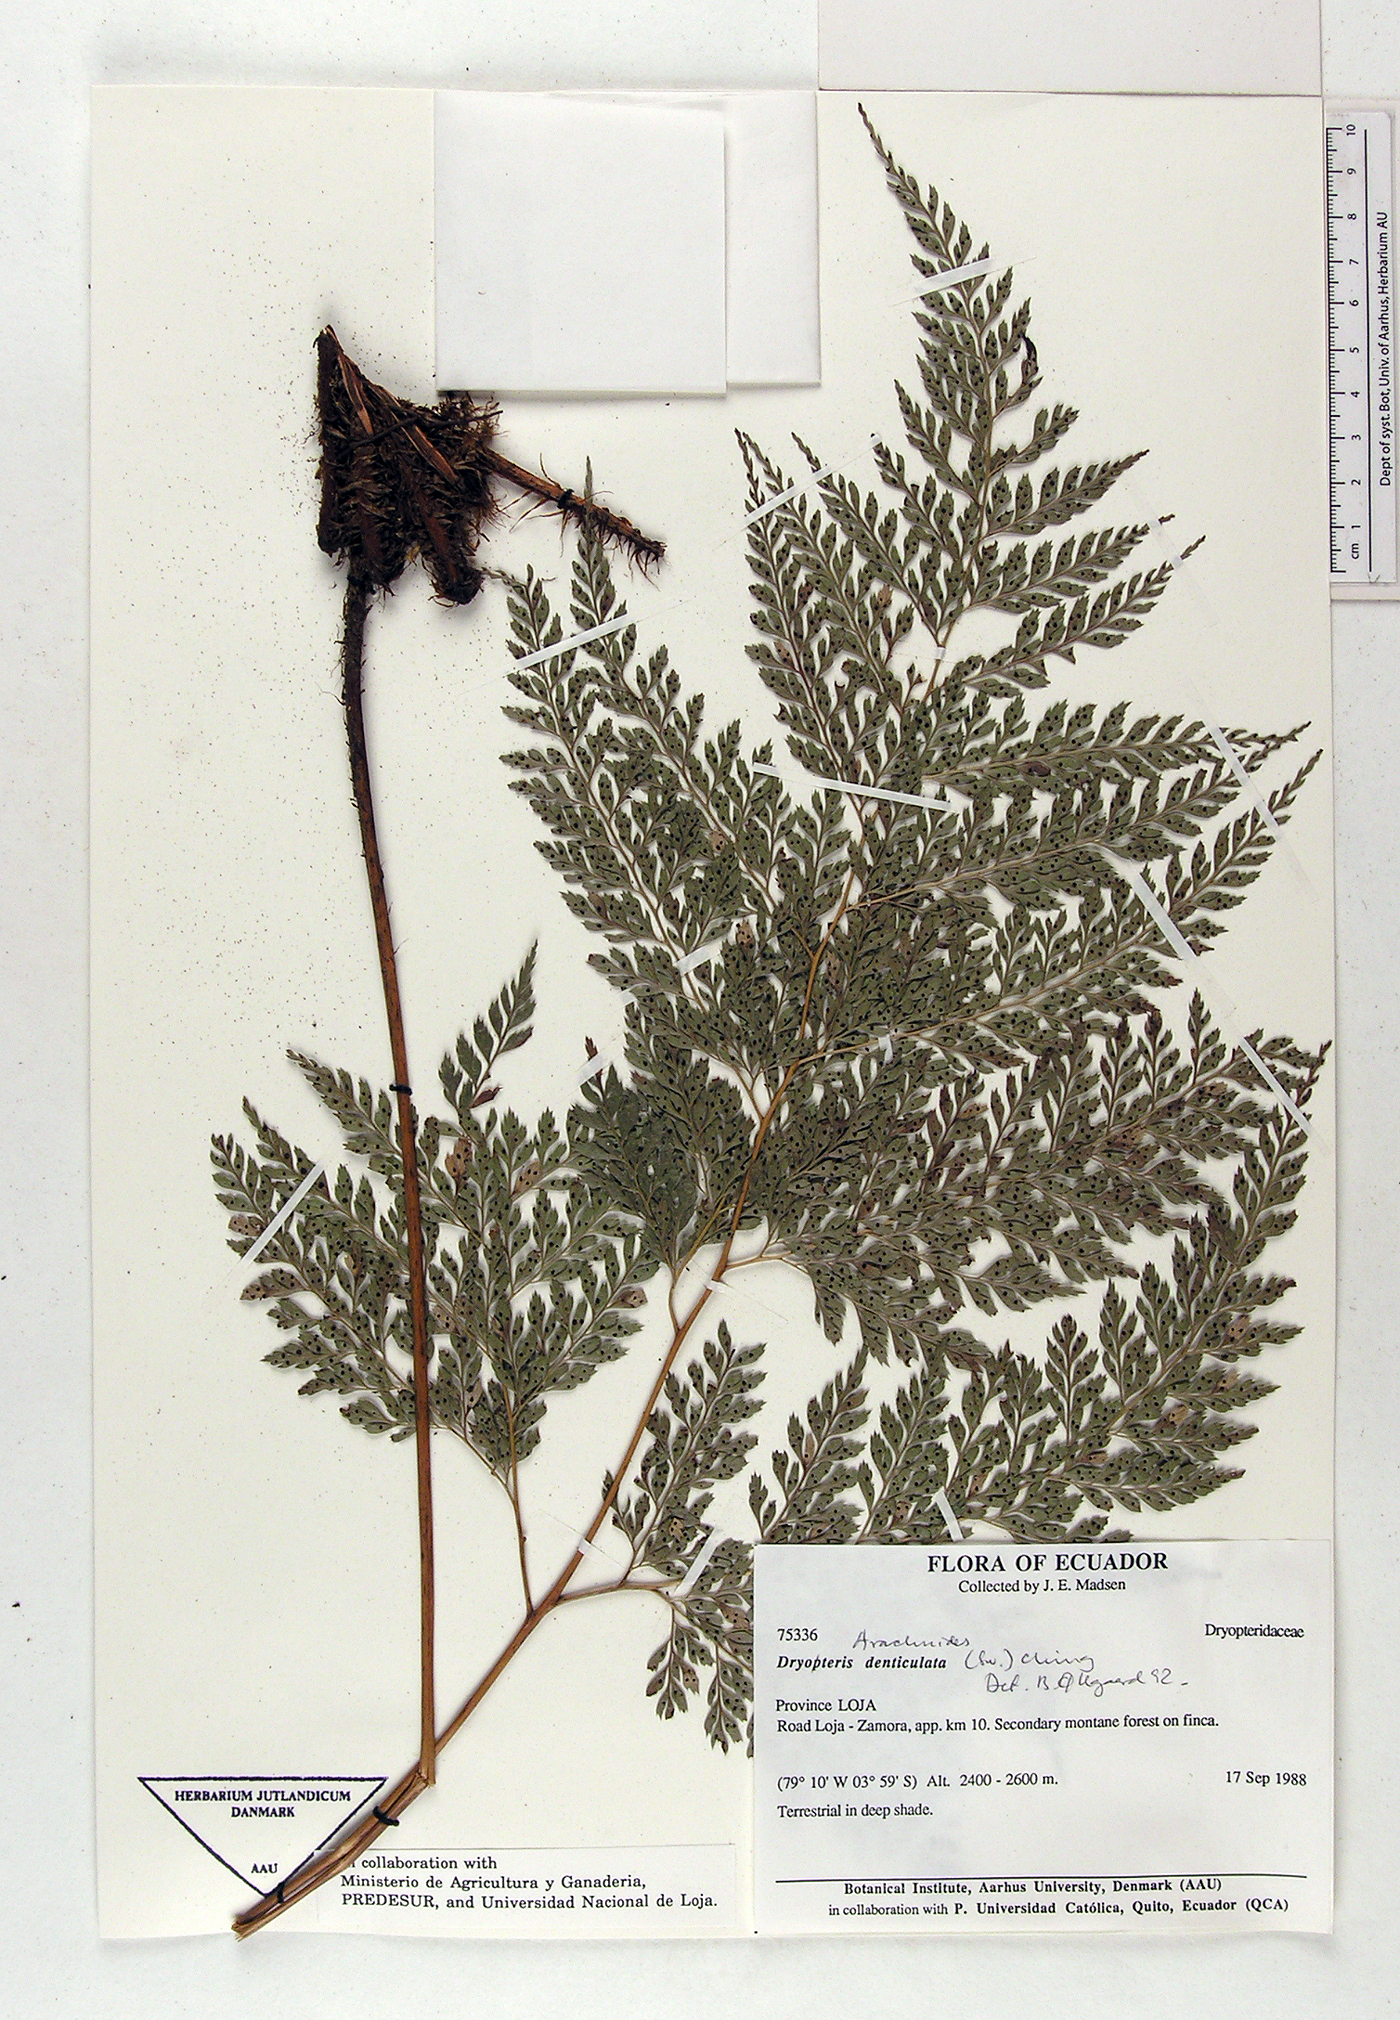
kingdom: Plantae
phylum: Tracheophyta
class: Polypodiopsida
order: Polypodiales
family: Dryopteridaceae
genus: Arachniodes
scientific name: Arachniodes denticulata
